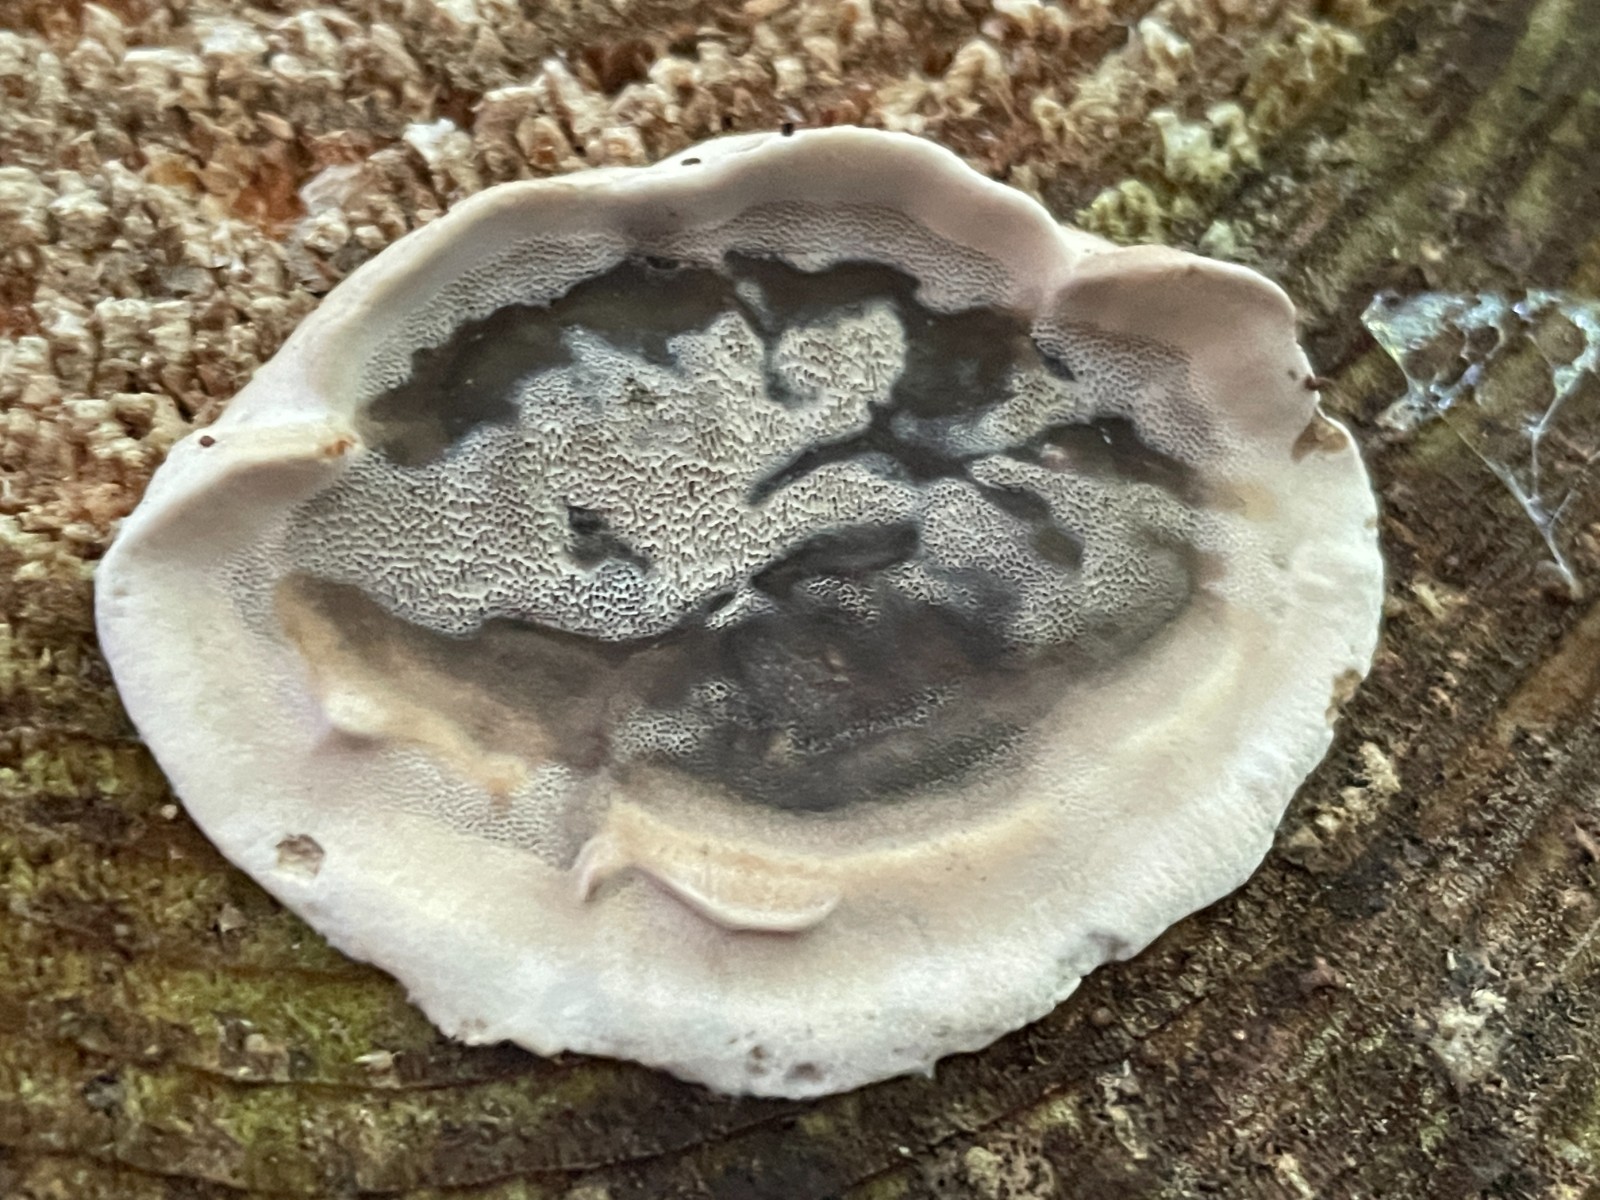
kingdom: Fungi
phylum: Basidiomycota
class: Agaricomycetes
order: Polyporales
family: Phanerochaetaceae
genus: Bjerkandera
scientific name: Bjerkandera adusta
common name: sveden sodporesvamp
